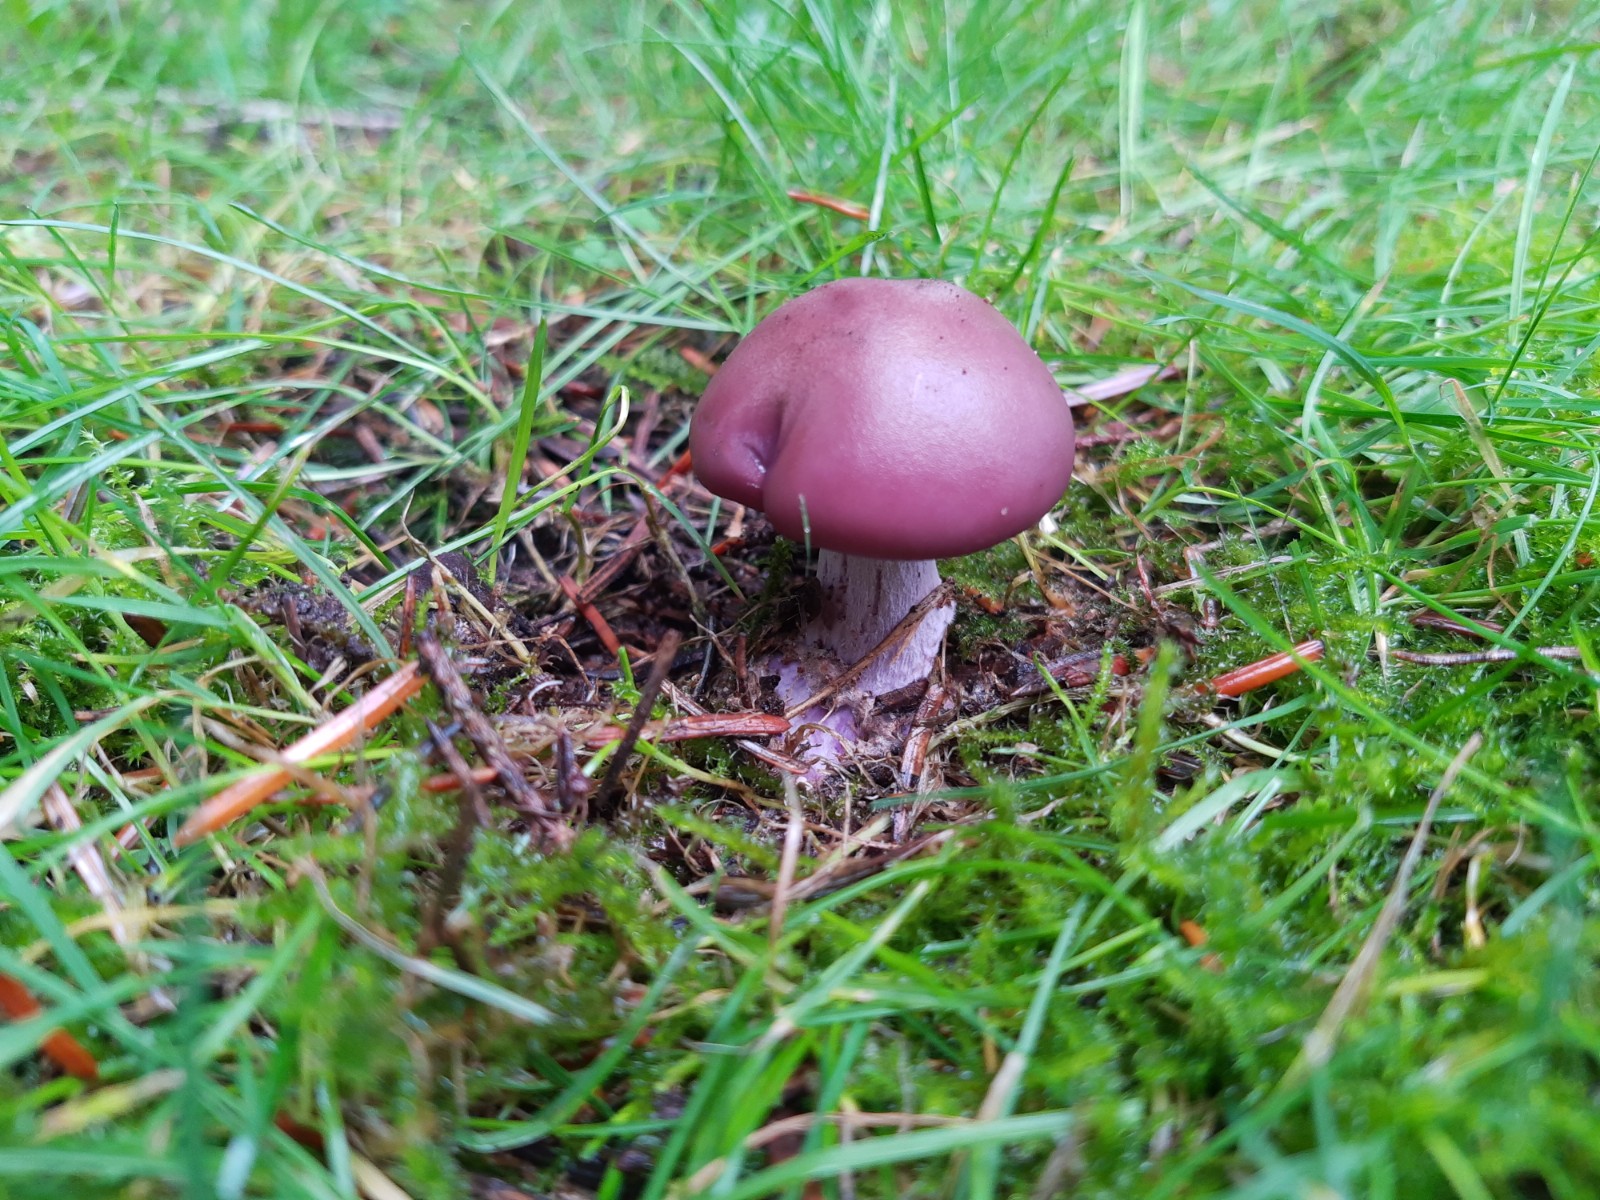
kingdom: Fungi
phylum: Basidiomycota
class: Agaricomycetes
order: Agaricales
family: Tricholomataceae
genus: Lepista
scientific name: Lepista nuda
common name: violet hekseringshat
